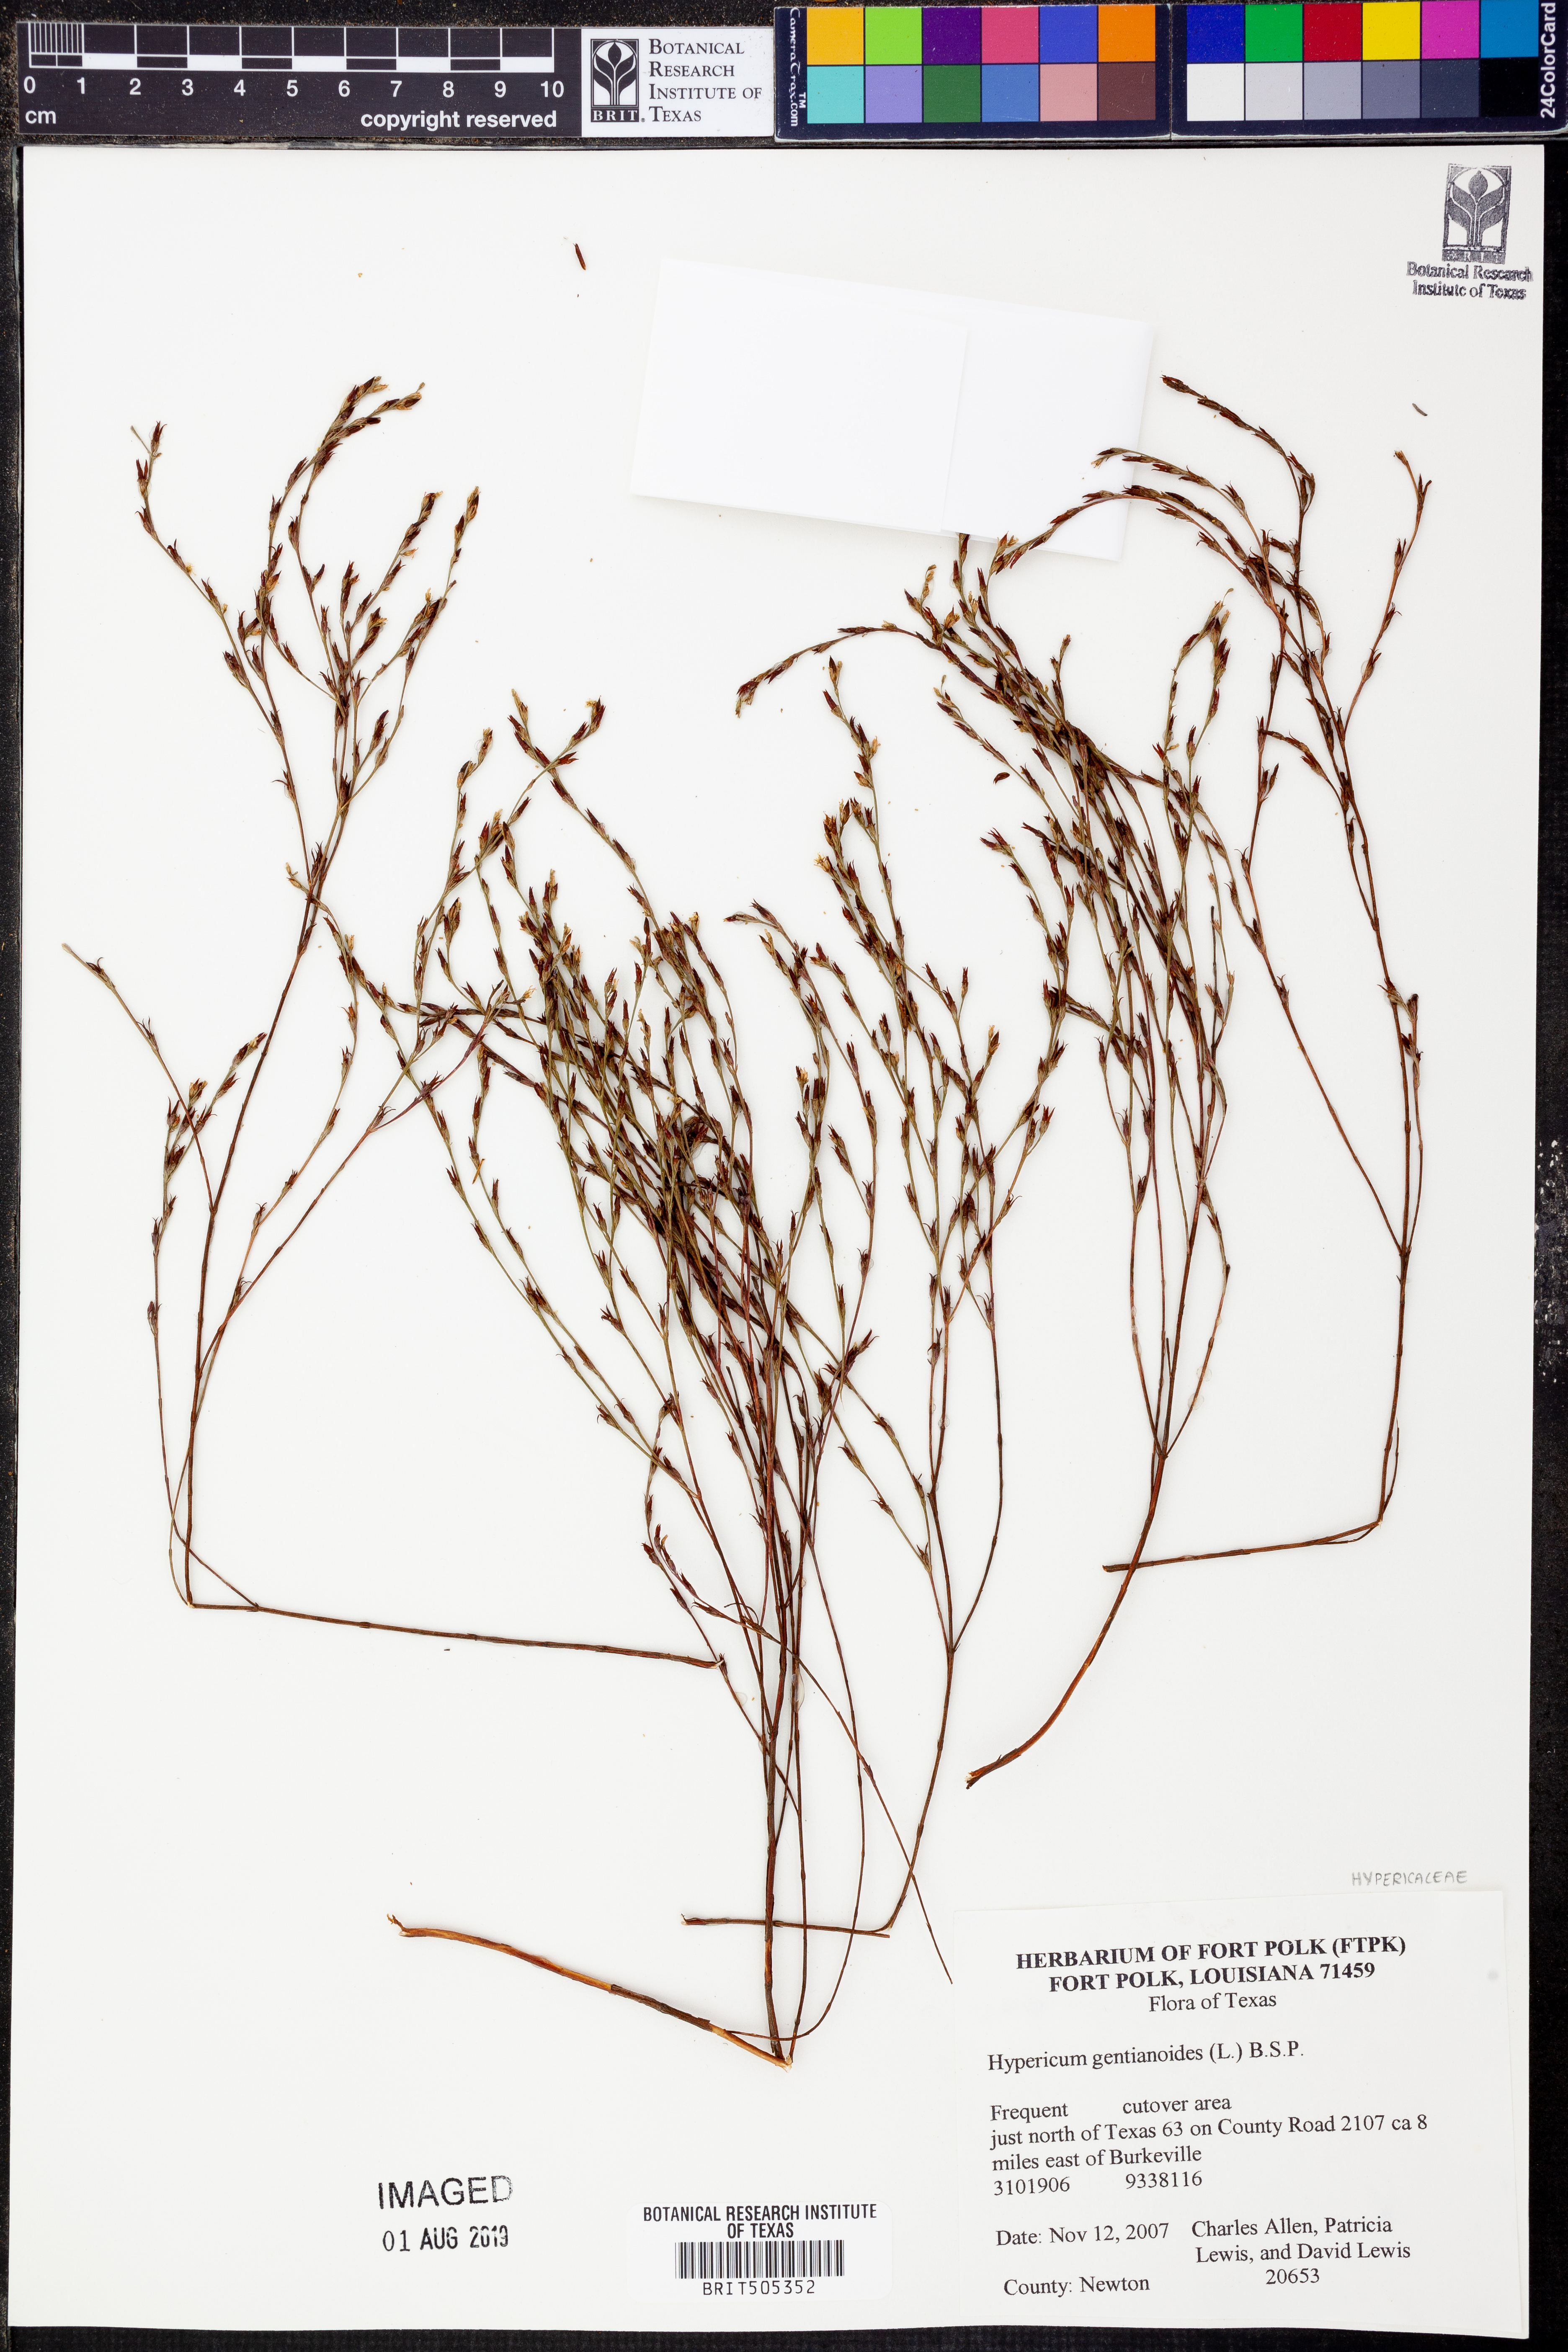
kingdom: Plantae
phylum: Tracheophyta
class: Magnoliopsida
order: Malpighiales
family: Hypericaceae
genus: Hypericum
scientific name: Hypericum gentianoides
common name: Gentian-leaved st. john's-wort
